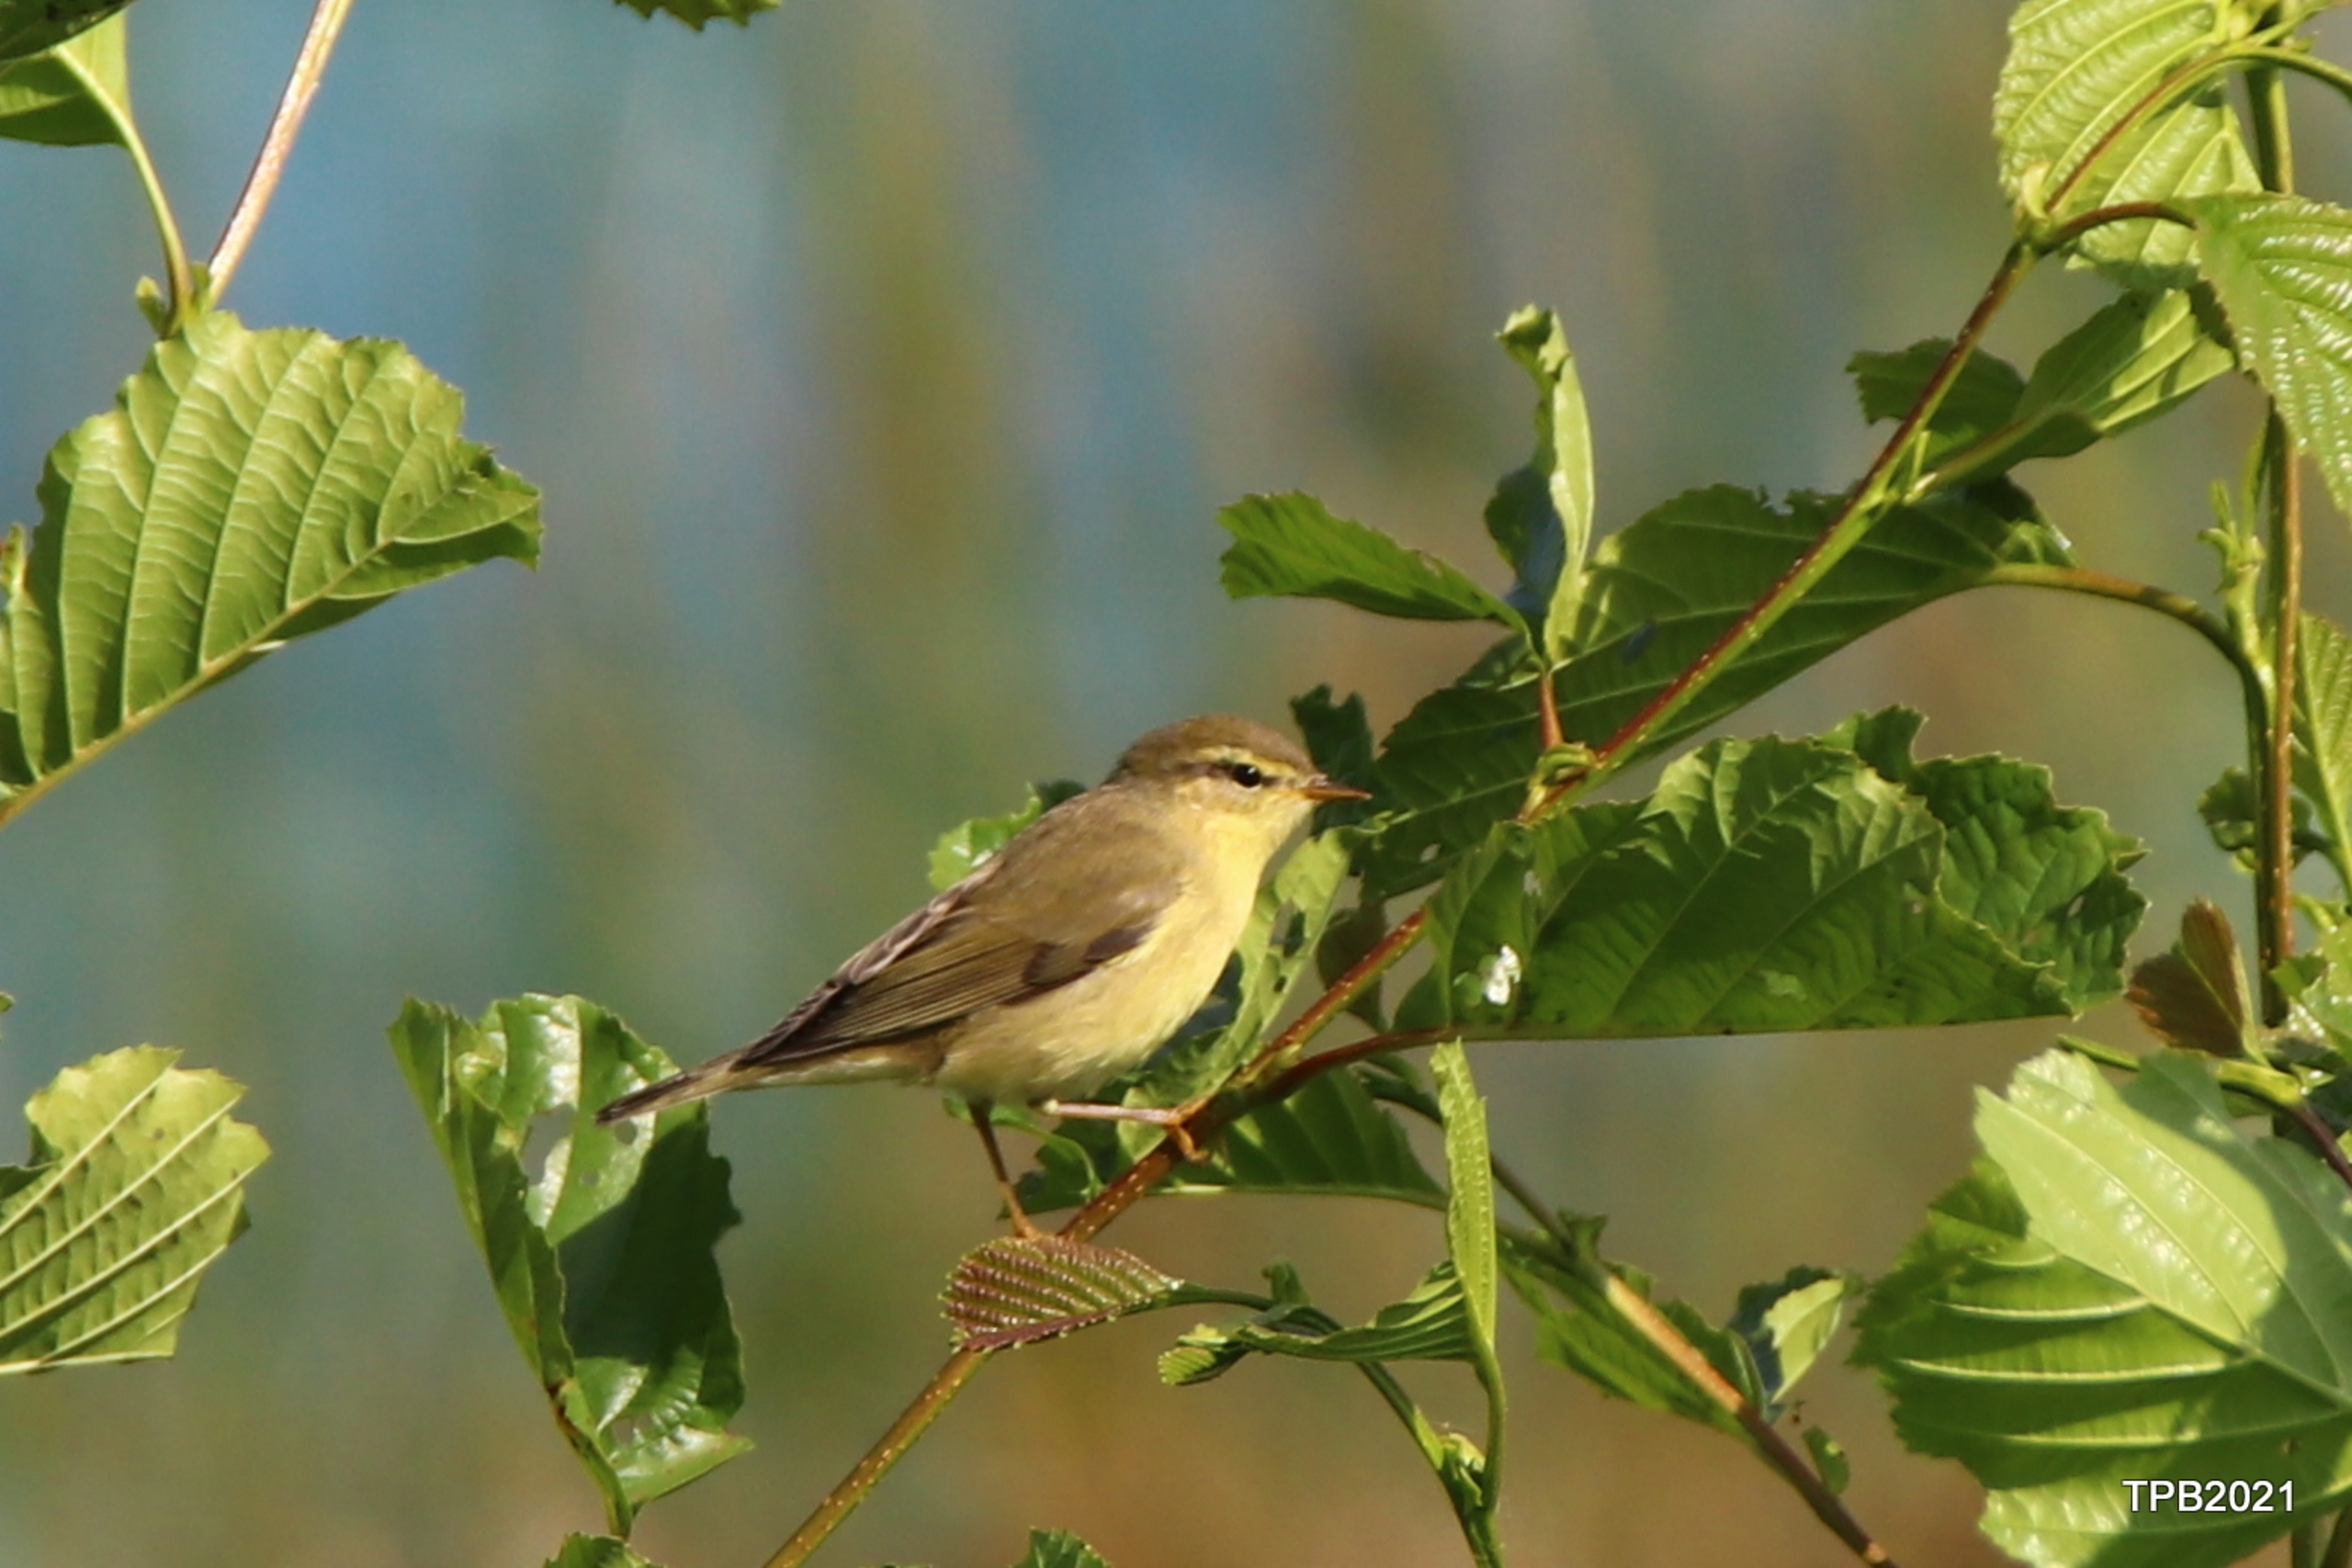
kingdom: Animalia
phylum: Chordata
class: Aves
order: Passeriformes
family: Phylloscopidae
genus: Phylloscopus
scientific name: Phylloscopus trochilus
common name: Løvsanger
